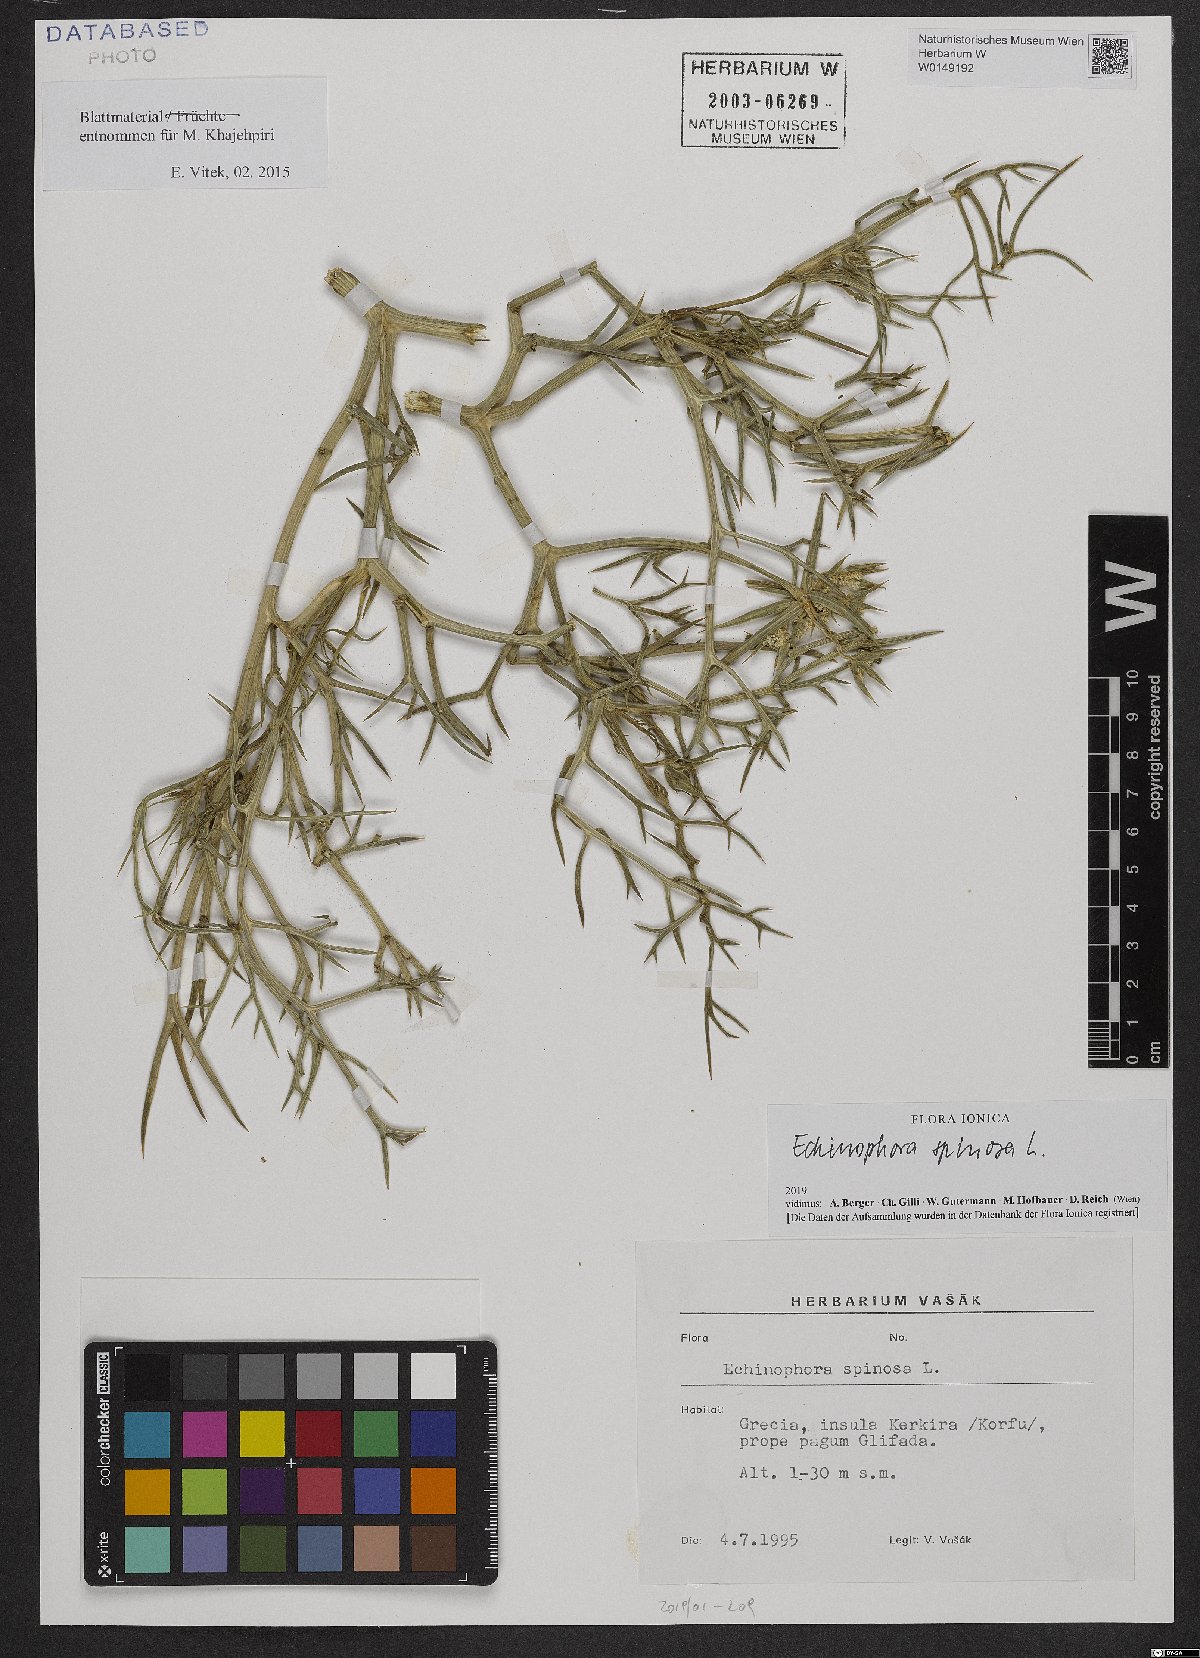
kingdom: Plantae
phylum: Tracheophyta
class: Magnoliopsida
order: Apiales
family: Apiaceae
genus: Echinophora
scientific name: Echinophora spinosa
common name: Prickly samphire
